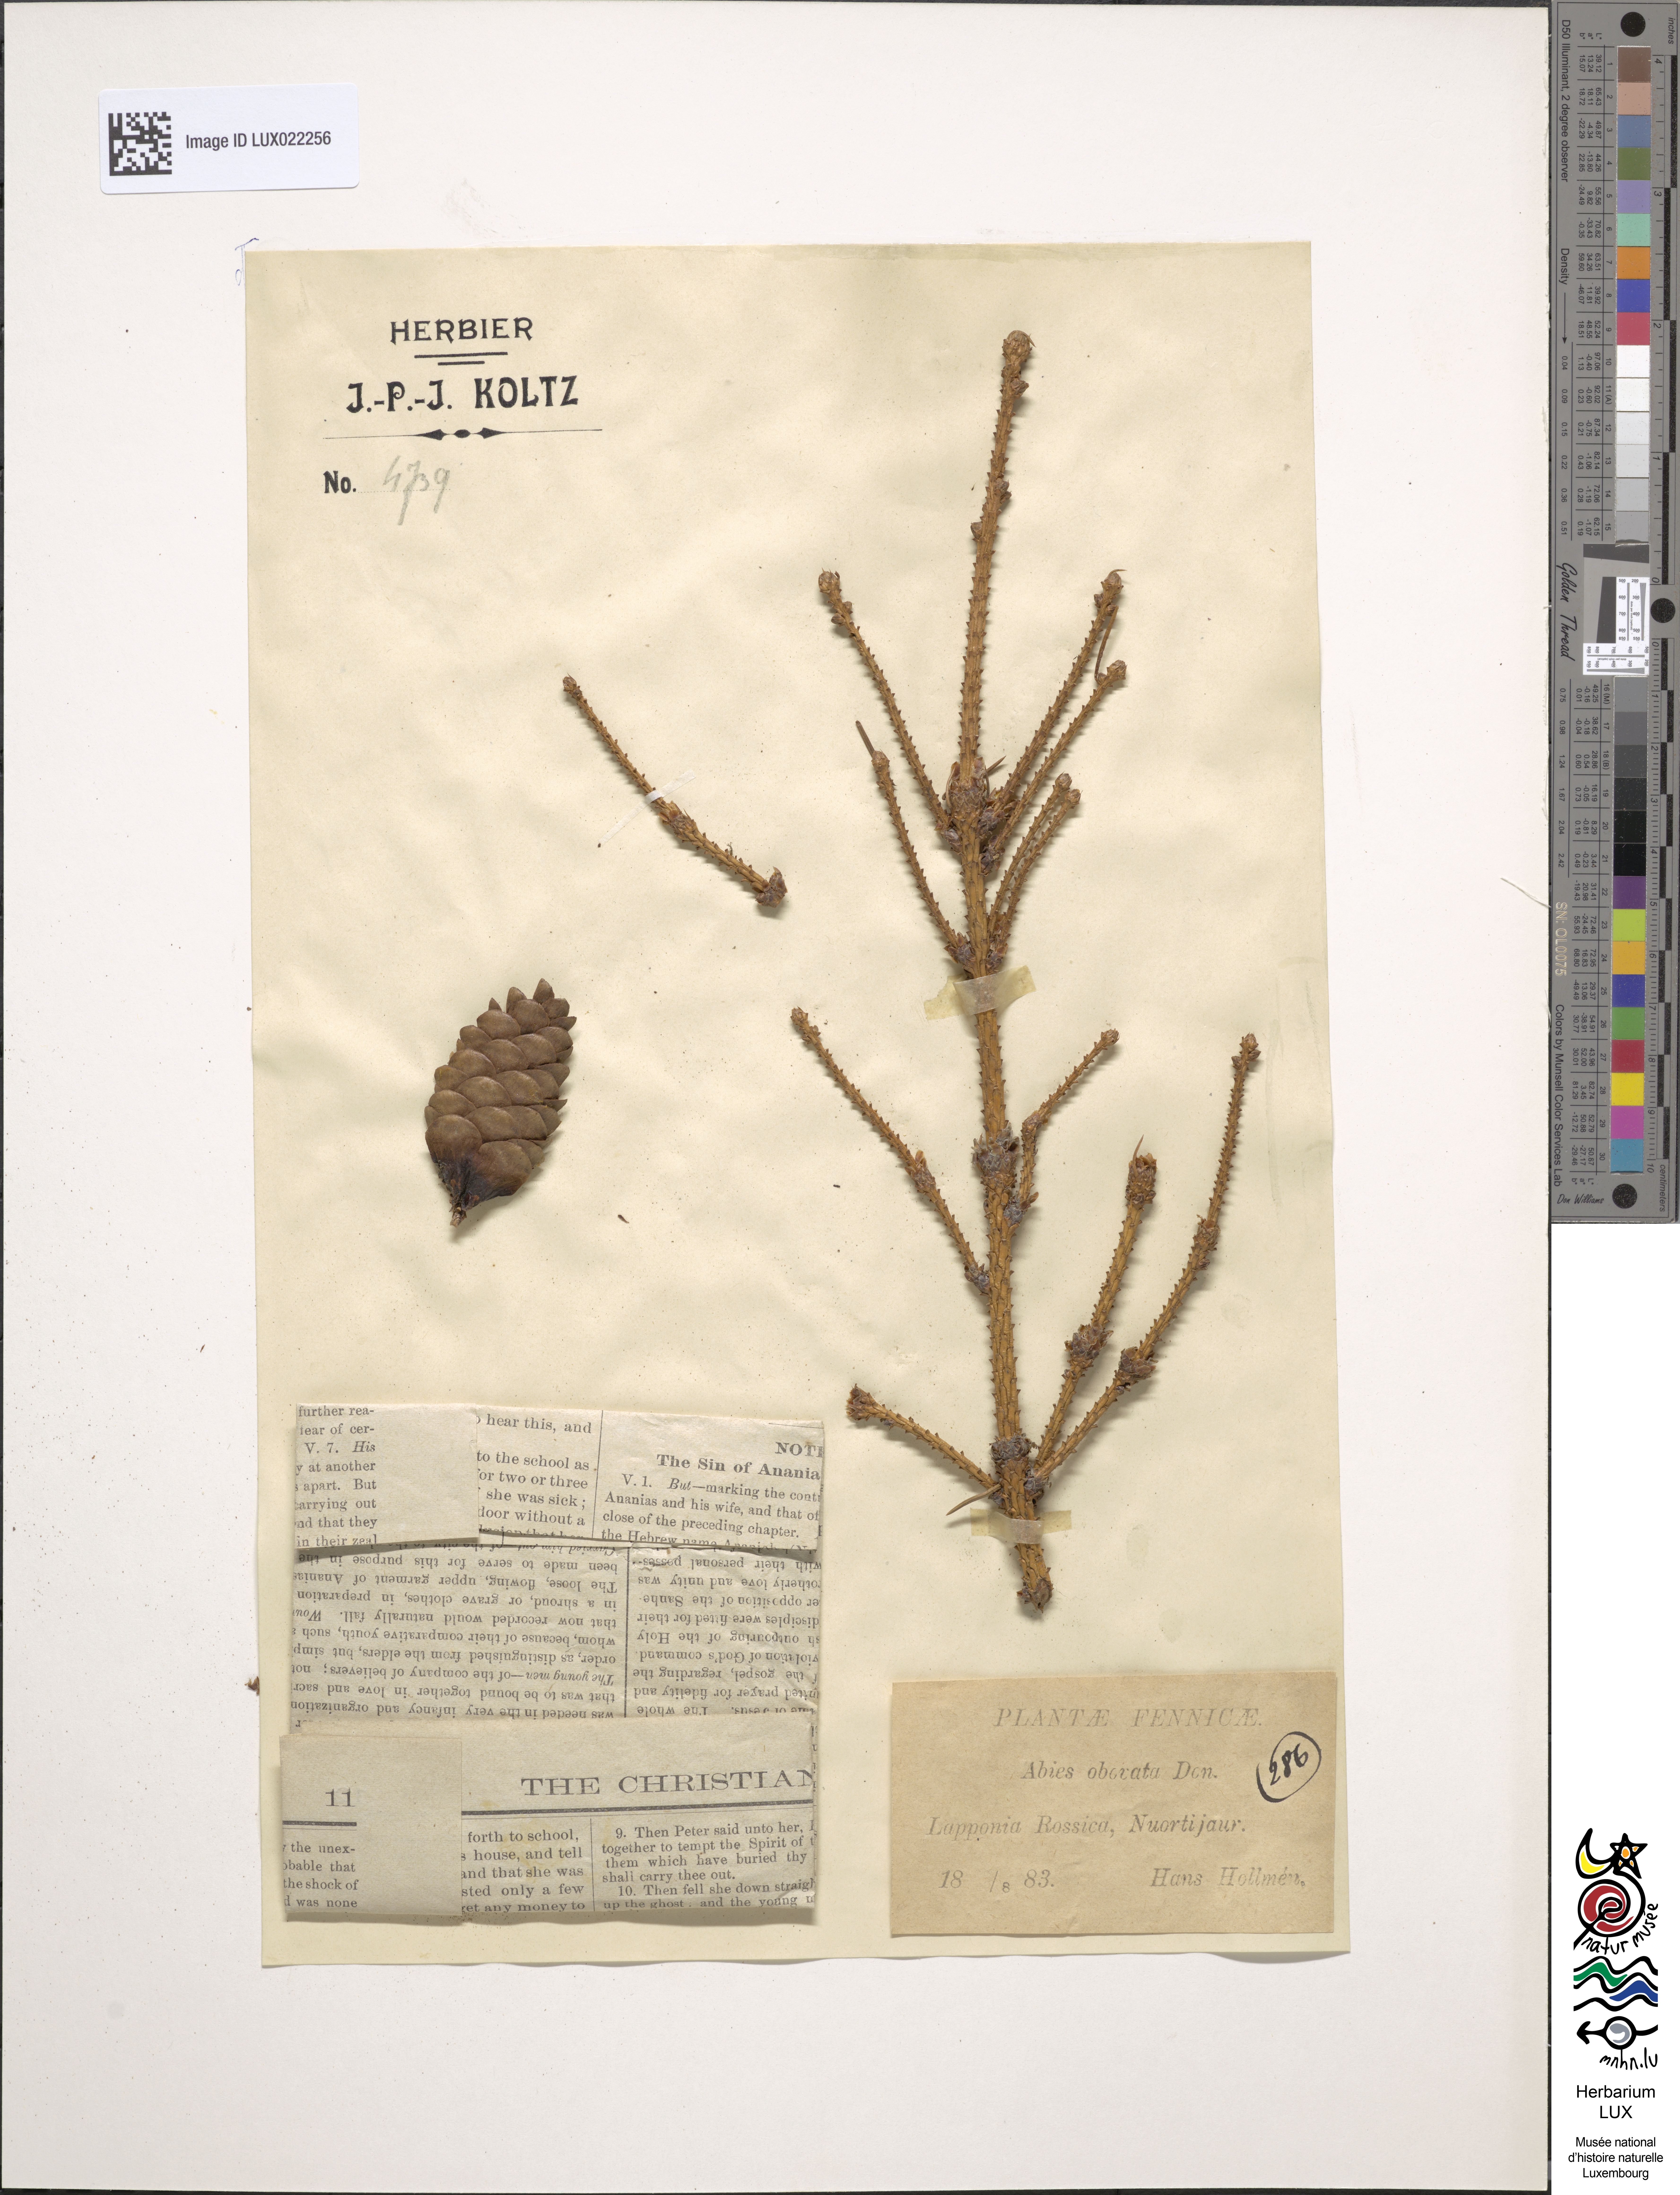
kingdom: Plantae
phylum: Tracheophyta
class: Pinopsida
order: Pinales
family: Pinaceae
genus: Abies
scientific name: Abies
